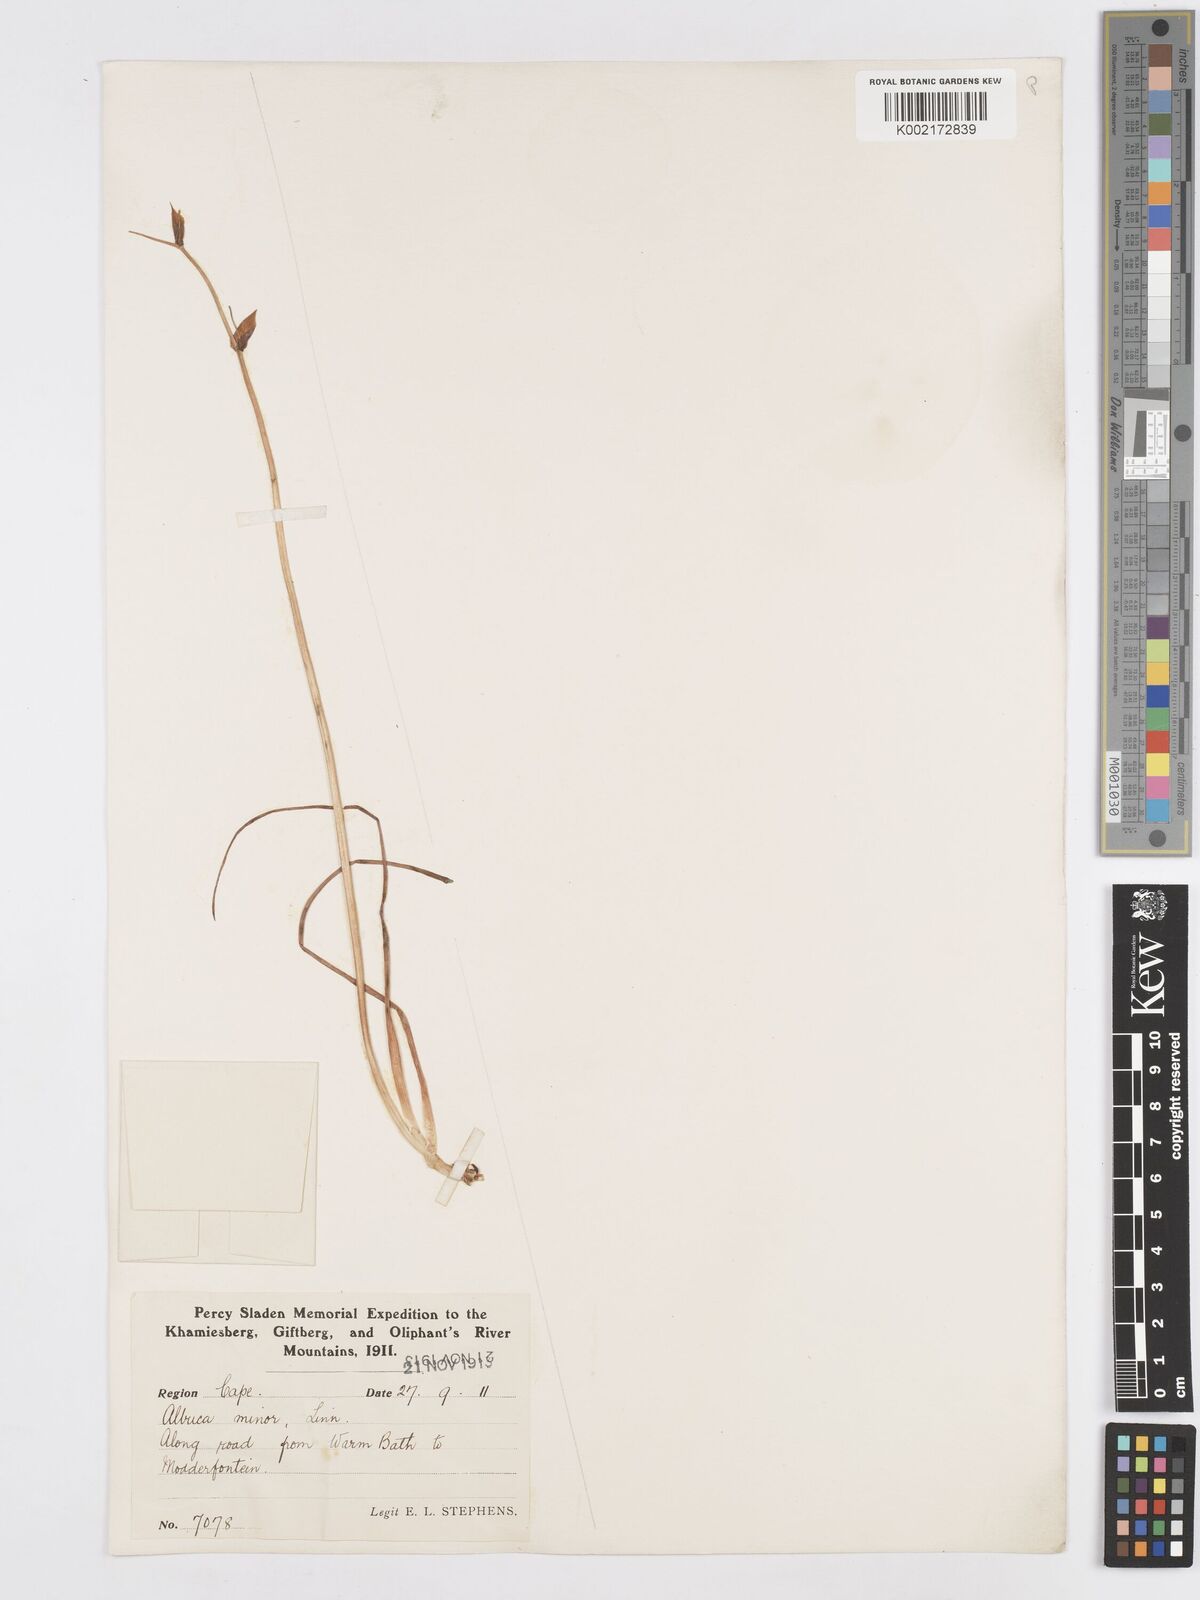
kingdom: Plantae
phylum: Tracheophyta
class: Liliopsida
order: Asparagales
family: Asparagaceae
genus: Albuca
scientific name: Albuca canadensis
